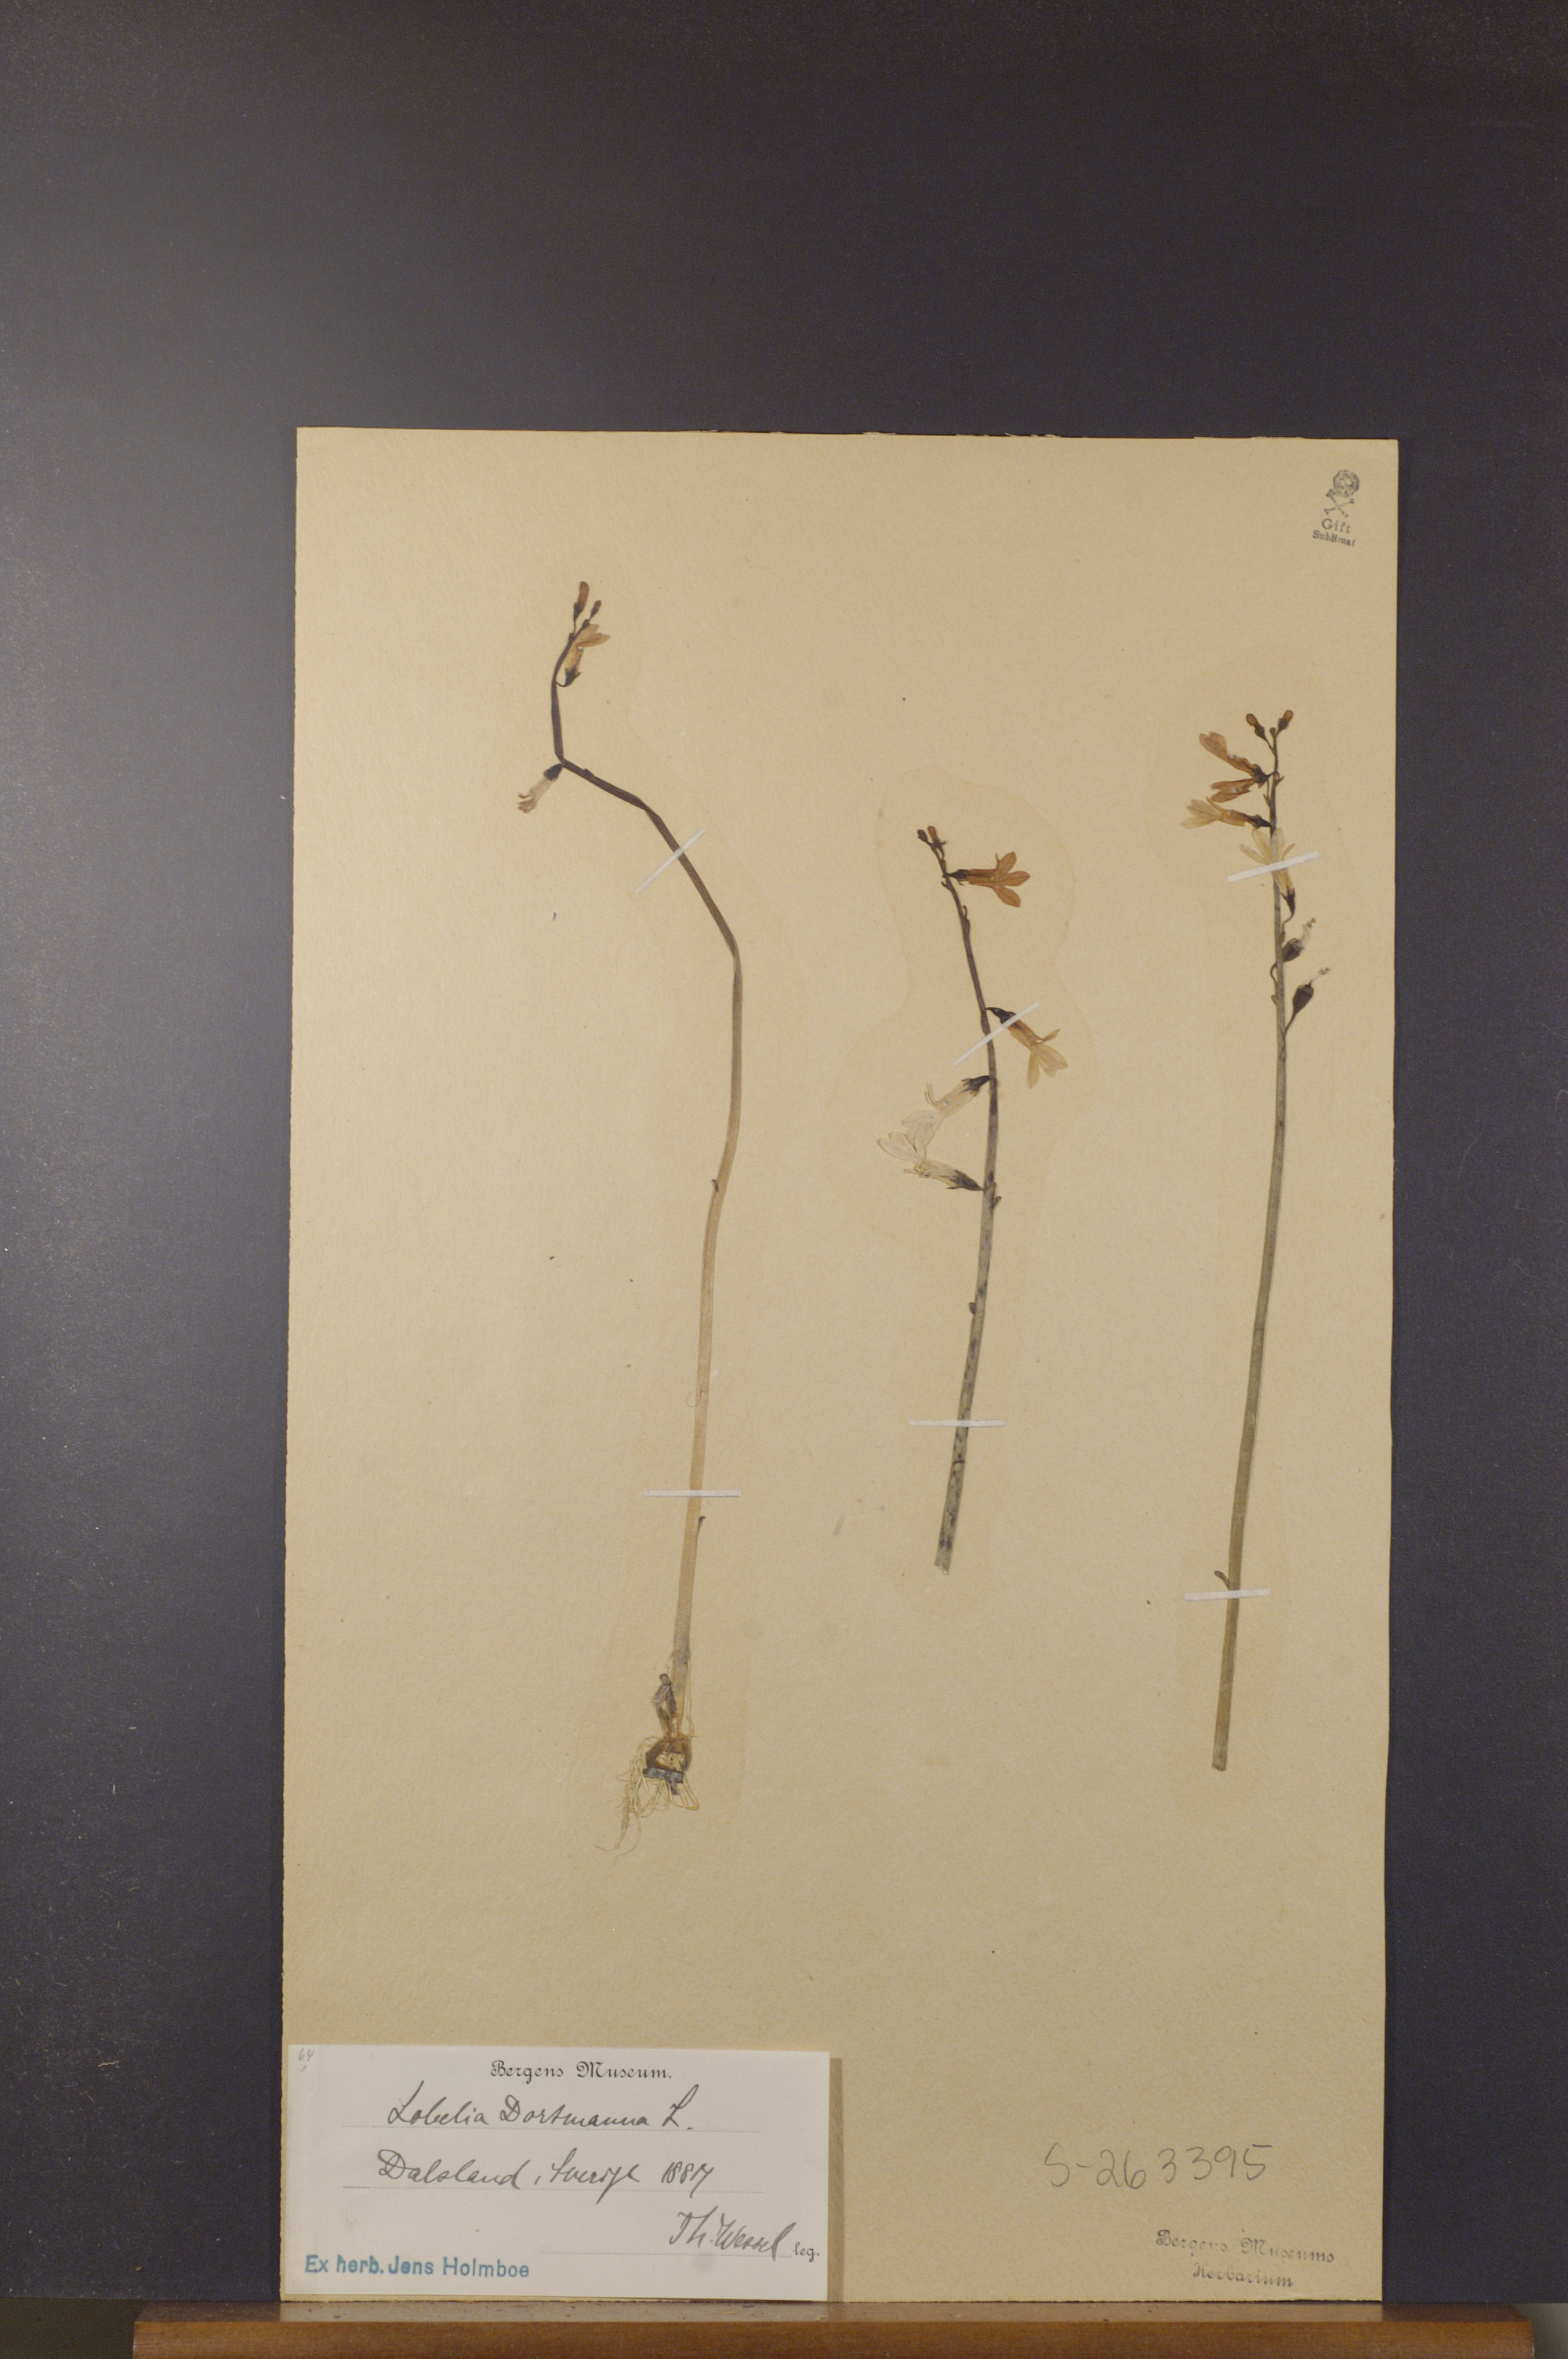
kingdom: Plantae
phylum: Tracheophyta
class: Magnoliopsida
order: Asterales
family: Campanulaceae
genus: Lobelia
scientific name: Lobelia dortmanna
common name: Water lobelia
